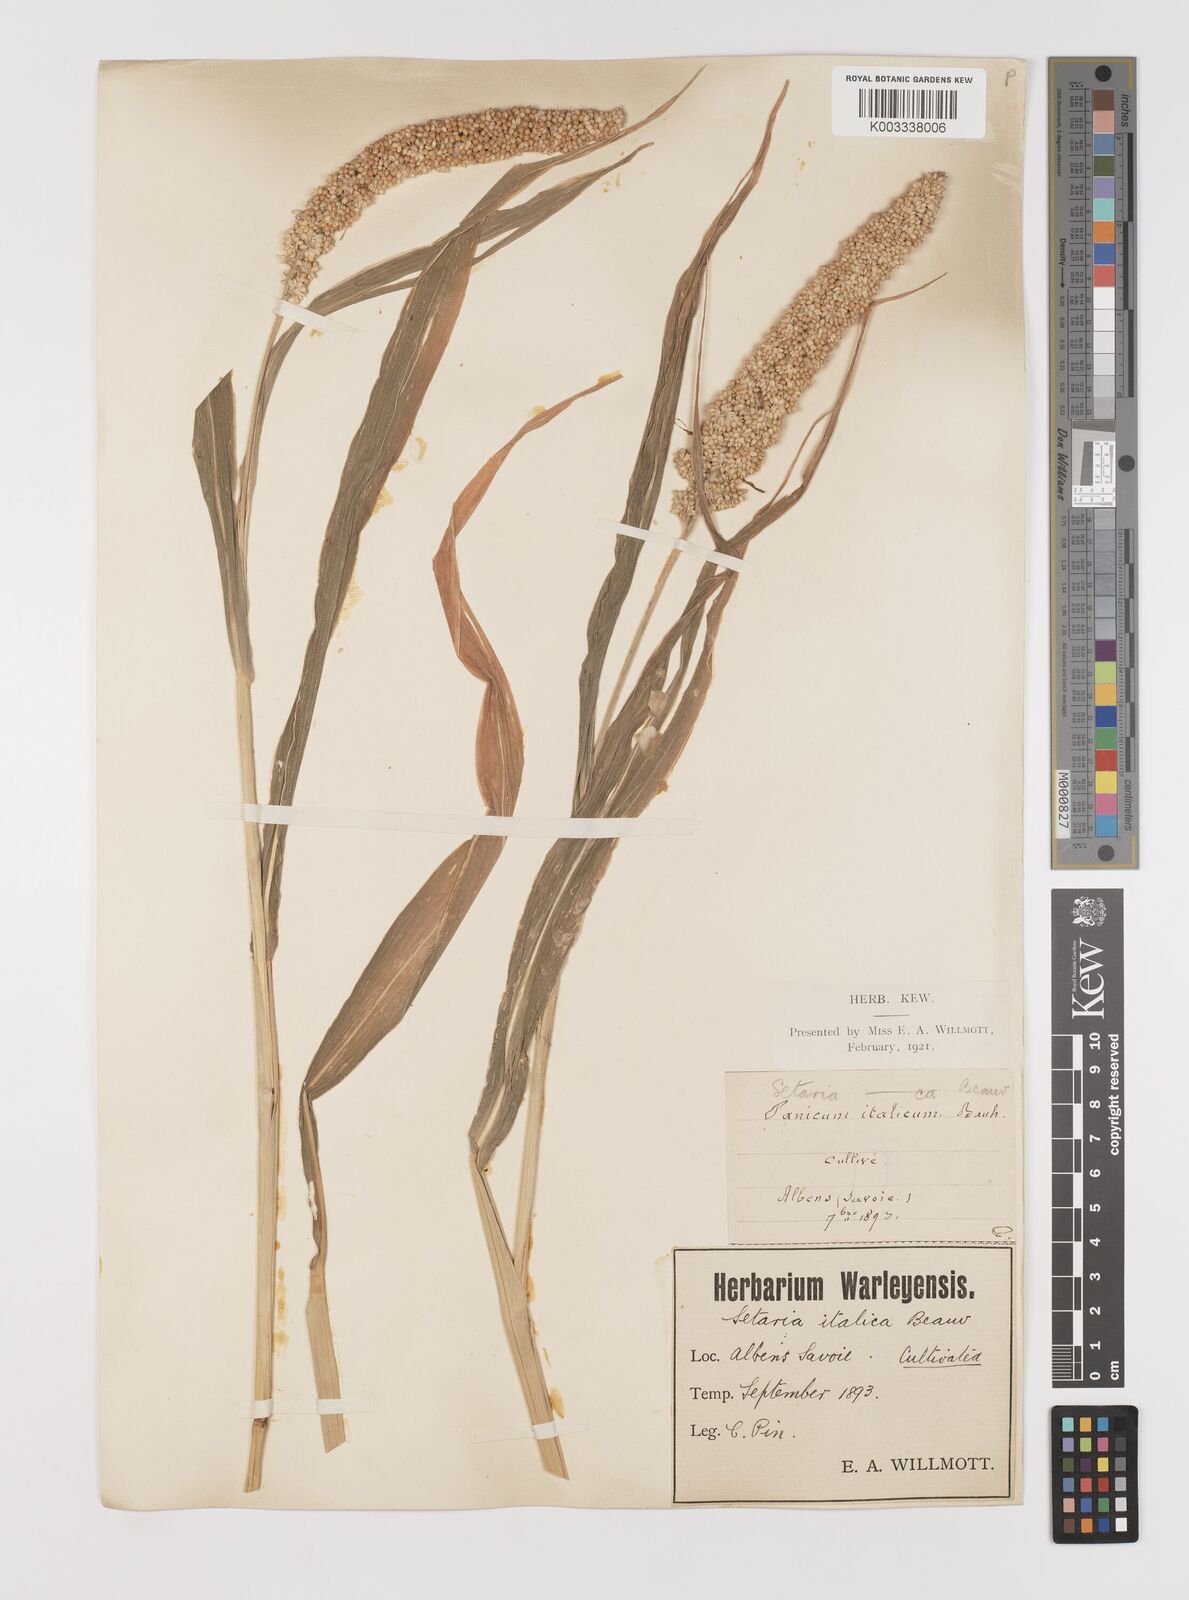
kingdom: Plantae
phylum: Tracheophyta
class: Liliopsida
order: Poales
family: Poaceae
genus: Setaria
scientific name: Setaria italica
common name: Foxtail bristle-grass
